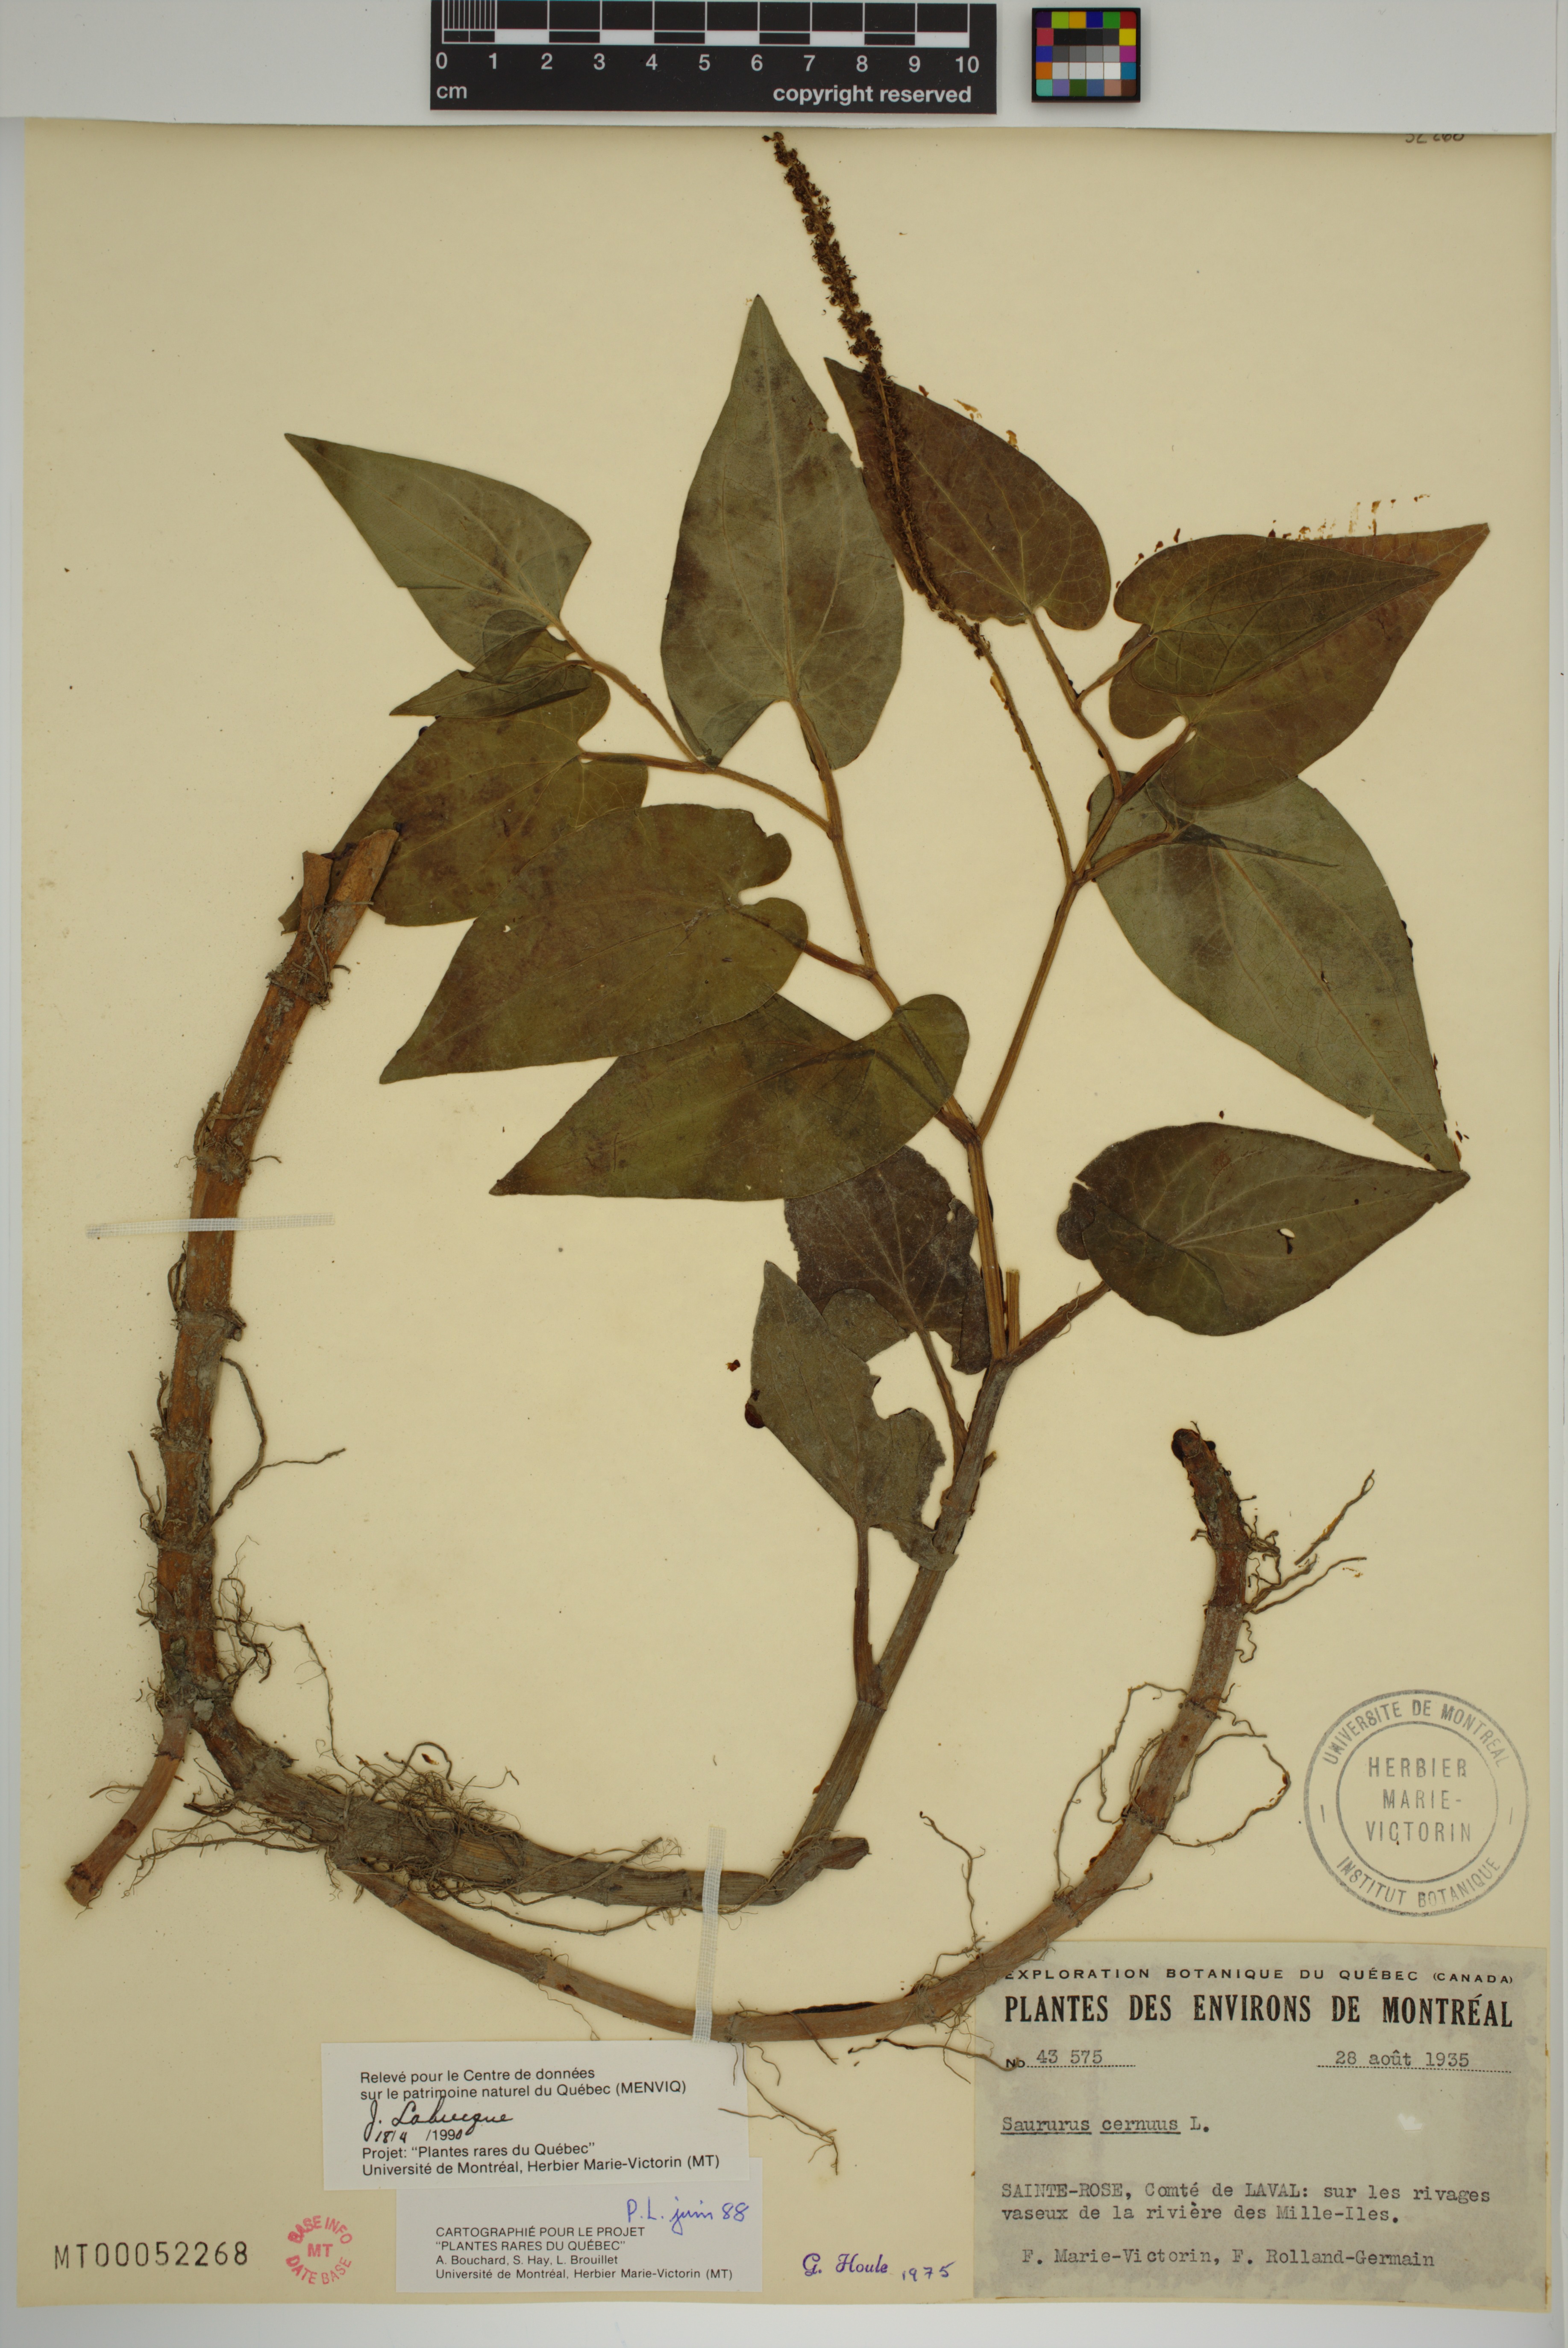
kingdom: Plantae
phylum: Tracheophyta
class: Magnoliopsida
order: Piperales
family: Saururaceae
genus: Saururus
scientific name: Saururus cernuus
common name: Lizard's-tail
